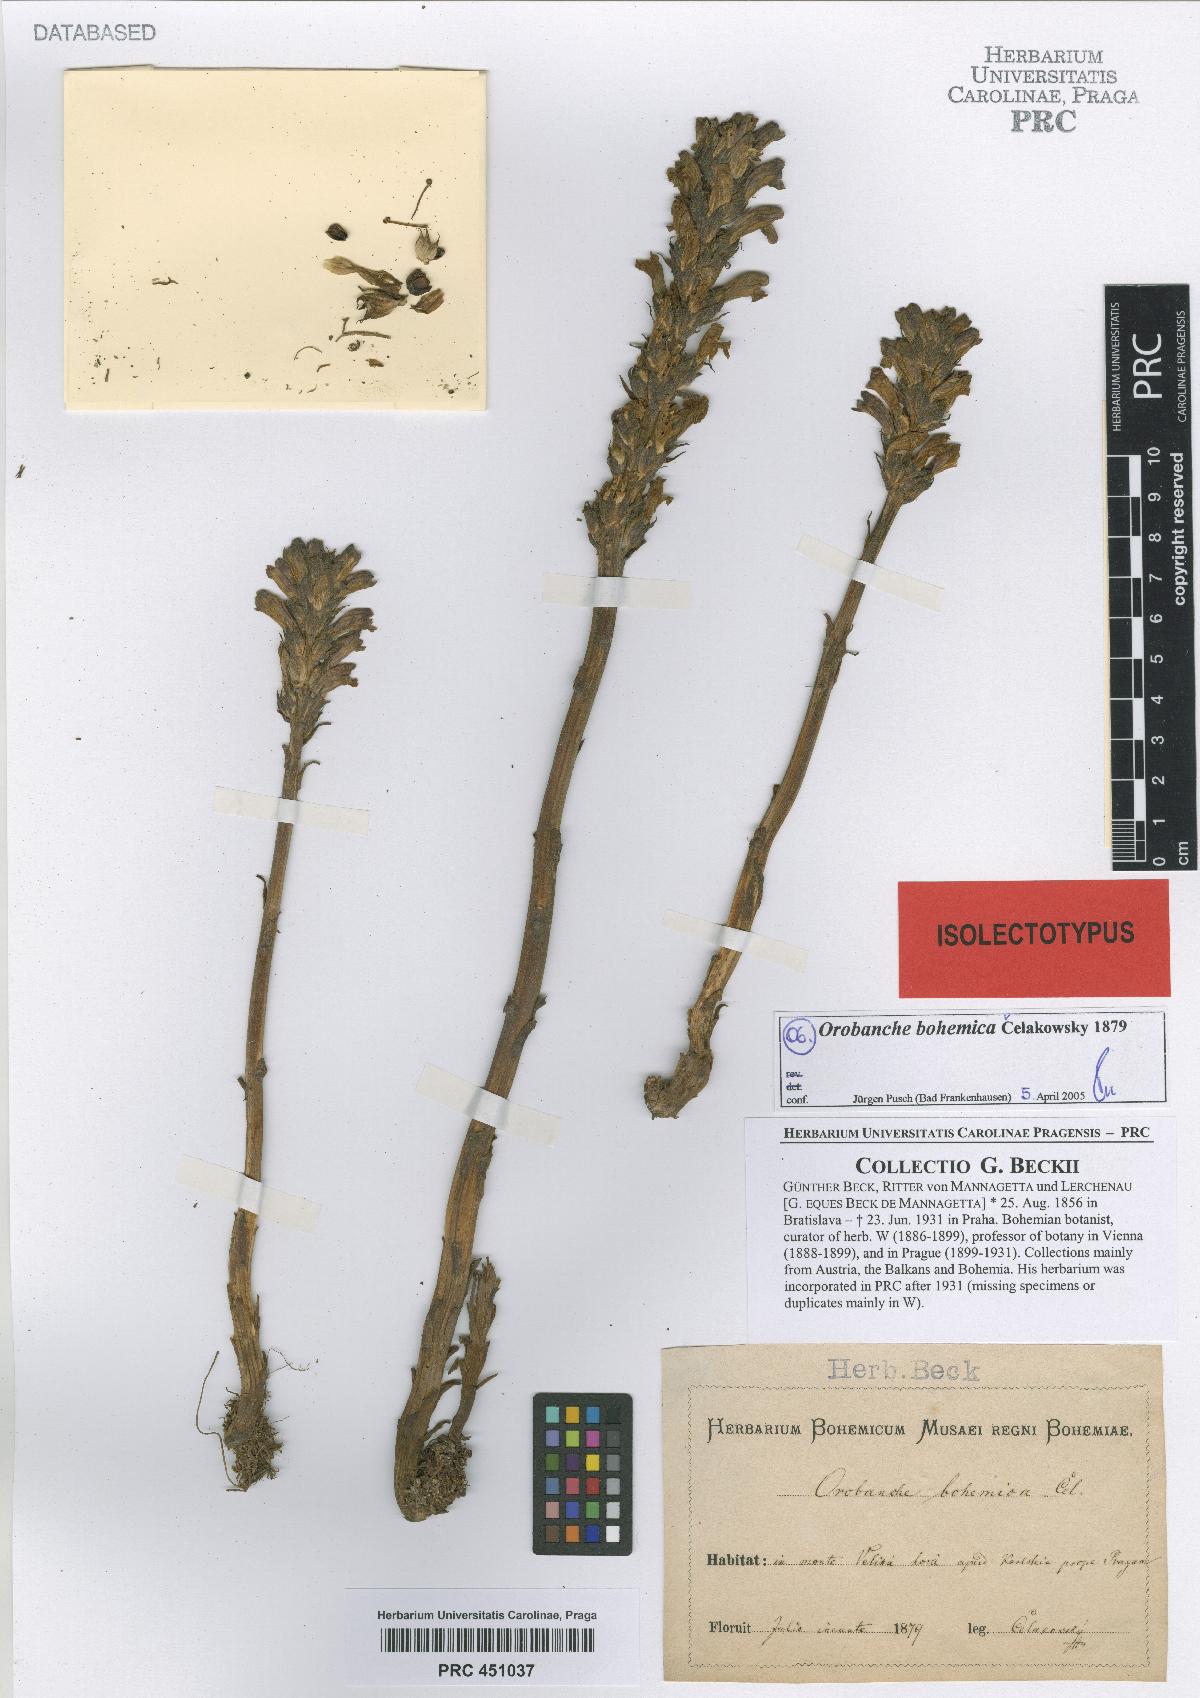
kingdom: Plantae
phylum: Tracheophyta
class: Magnoliopsida
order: Lamiales
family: Orobanchaceae
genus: Phelipanche
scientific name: Phelipanche bohemica
